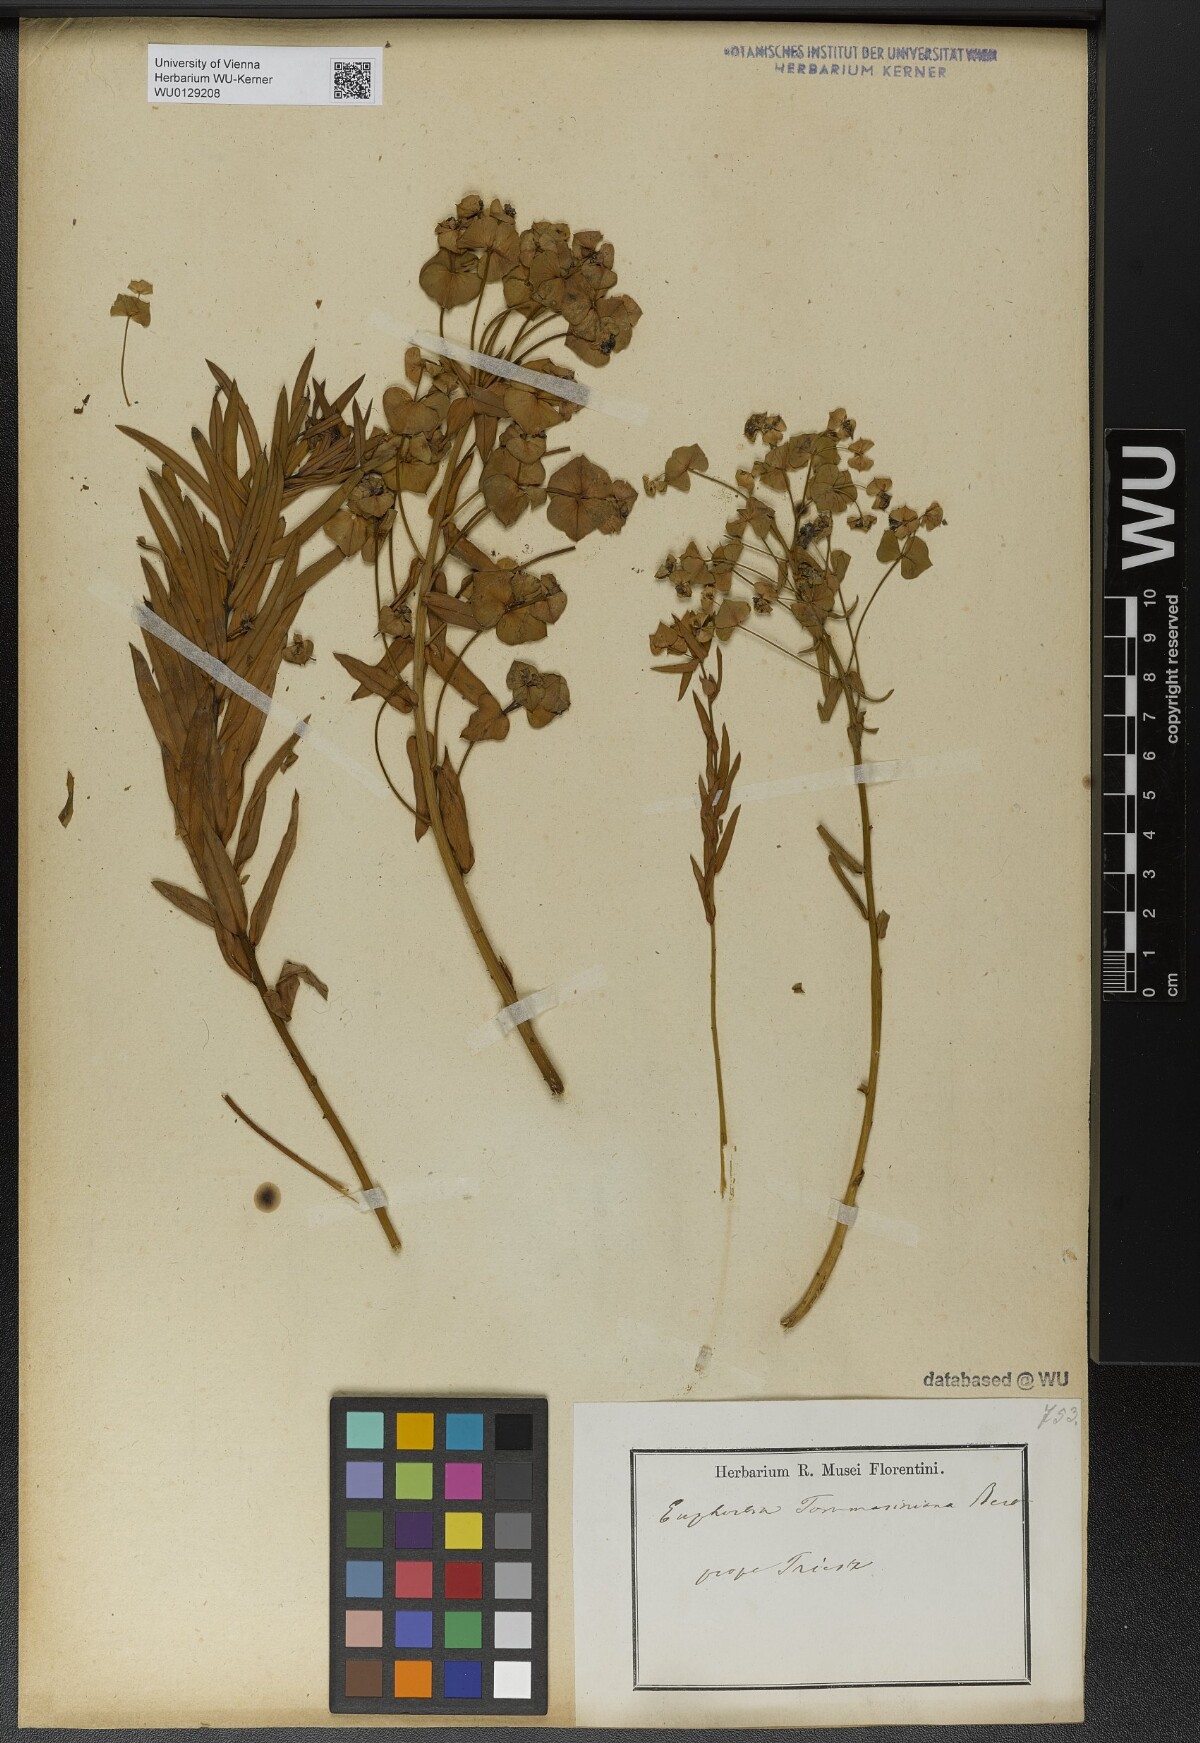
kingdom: Plantae
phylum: Tracheophyta
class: Magnoliopsida
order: Malpighiales
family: Euphorbiaceae
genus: Euphorbia
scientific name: Euphorbia tommasiniana
